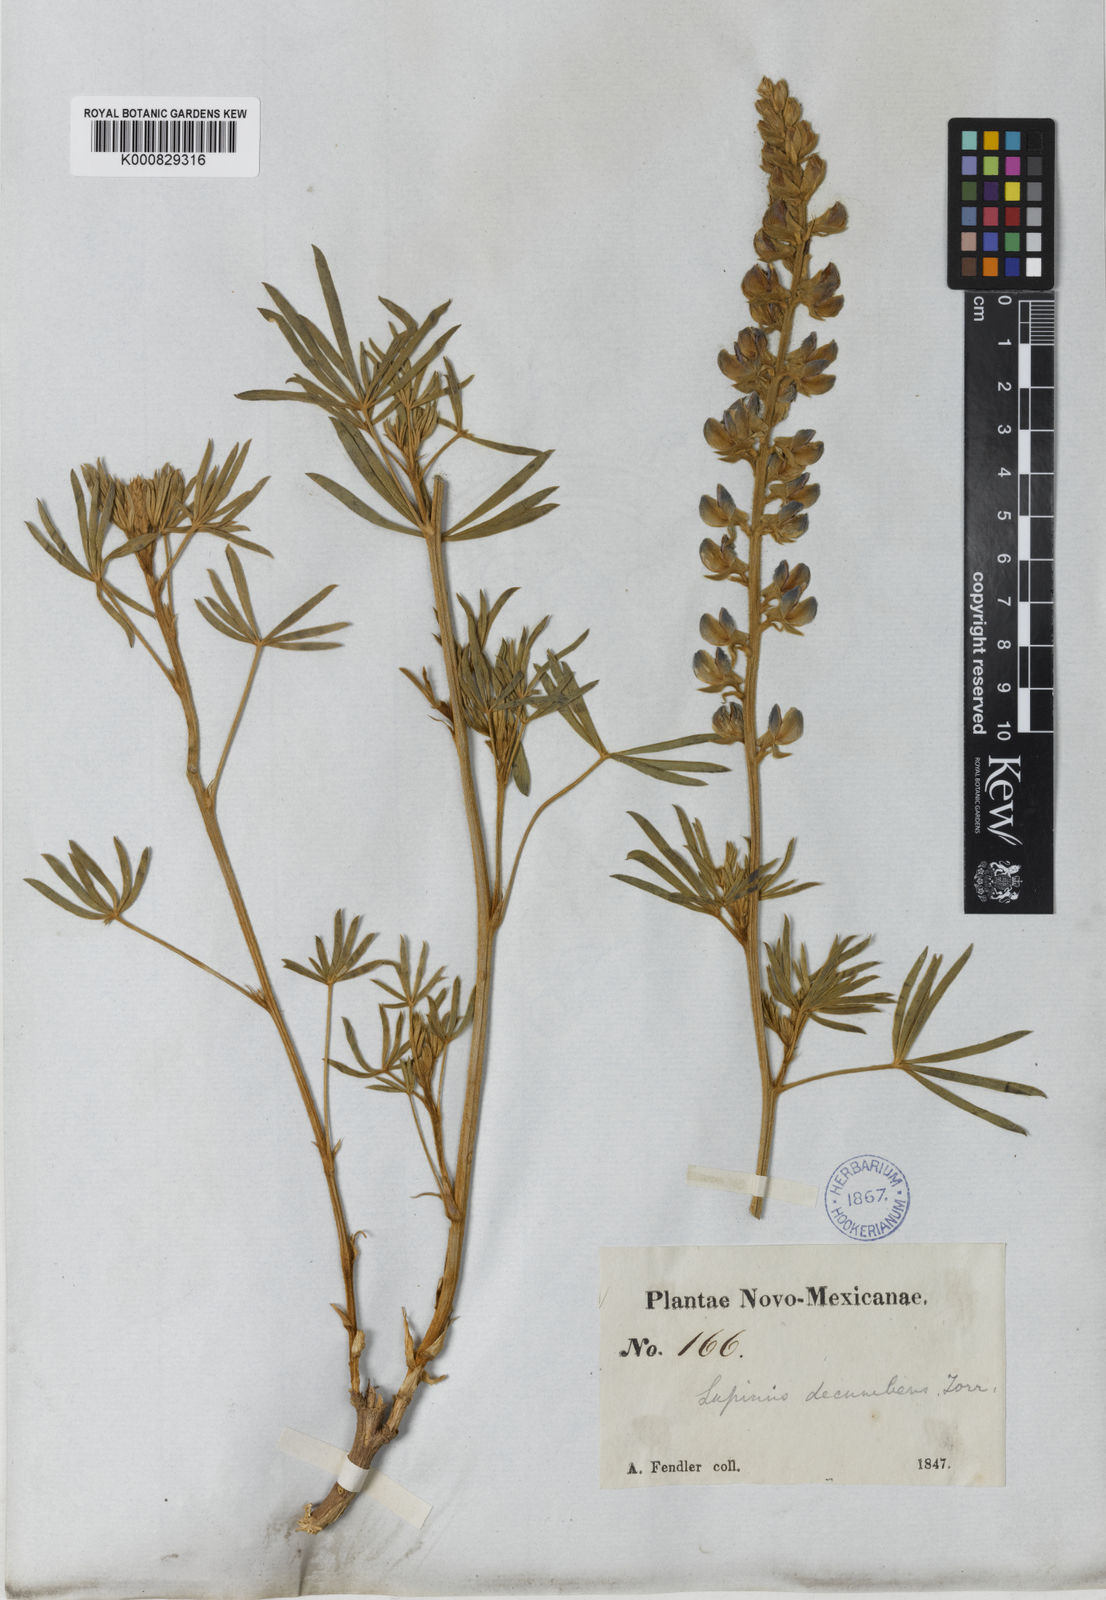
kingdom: Plantae
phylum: Tracheophyta
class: Magnoliopsida
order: Fabales
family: Fabaceae
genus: Lupinus
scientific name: Lupinus
